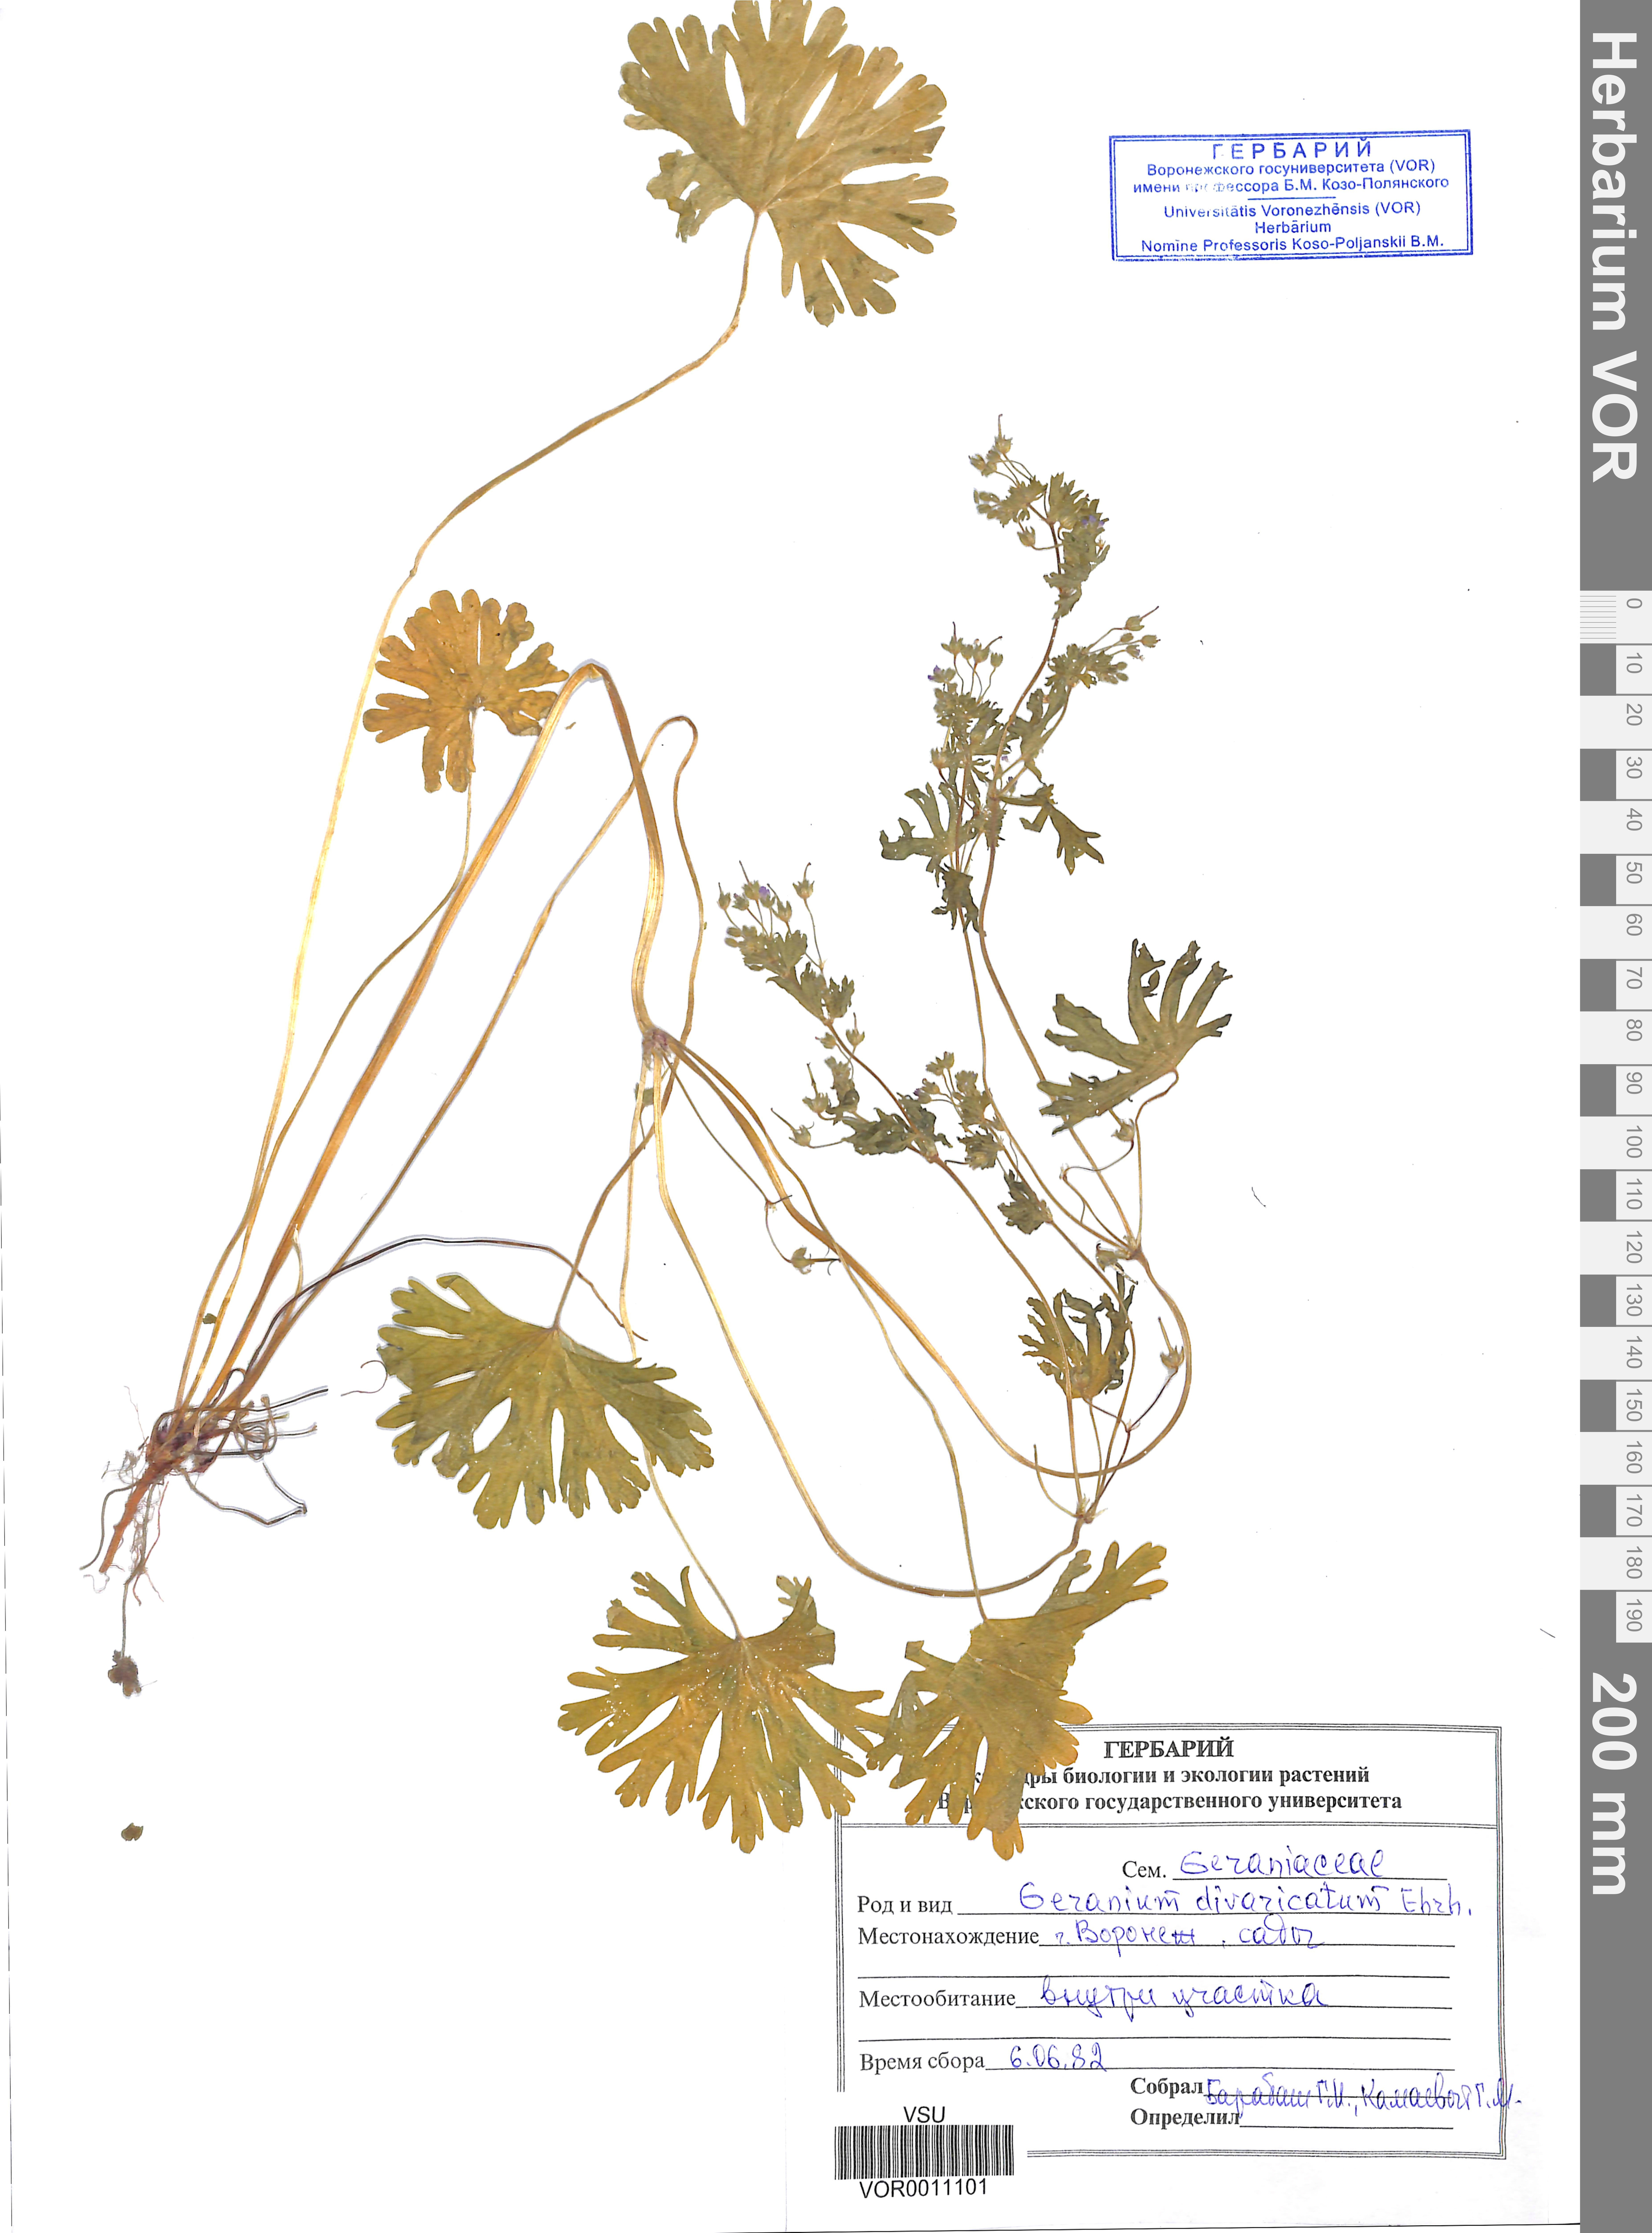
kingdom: Plantae
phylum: Tracheophyta
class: Magnoliopsida
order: Geraniales
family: Geraniaceae
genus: Geranium
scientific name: Geranium divaricatum
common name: Spreading crane's-bill
